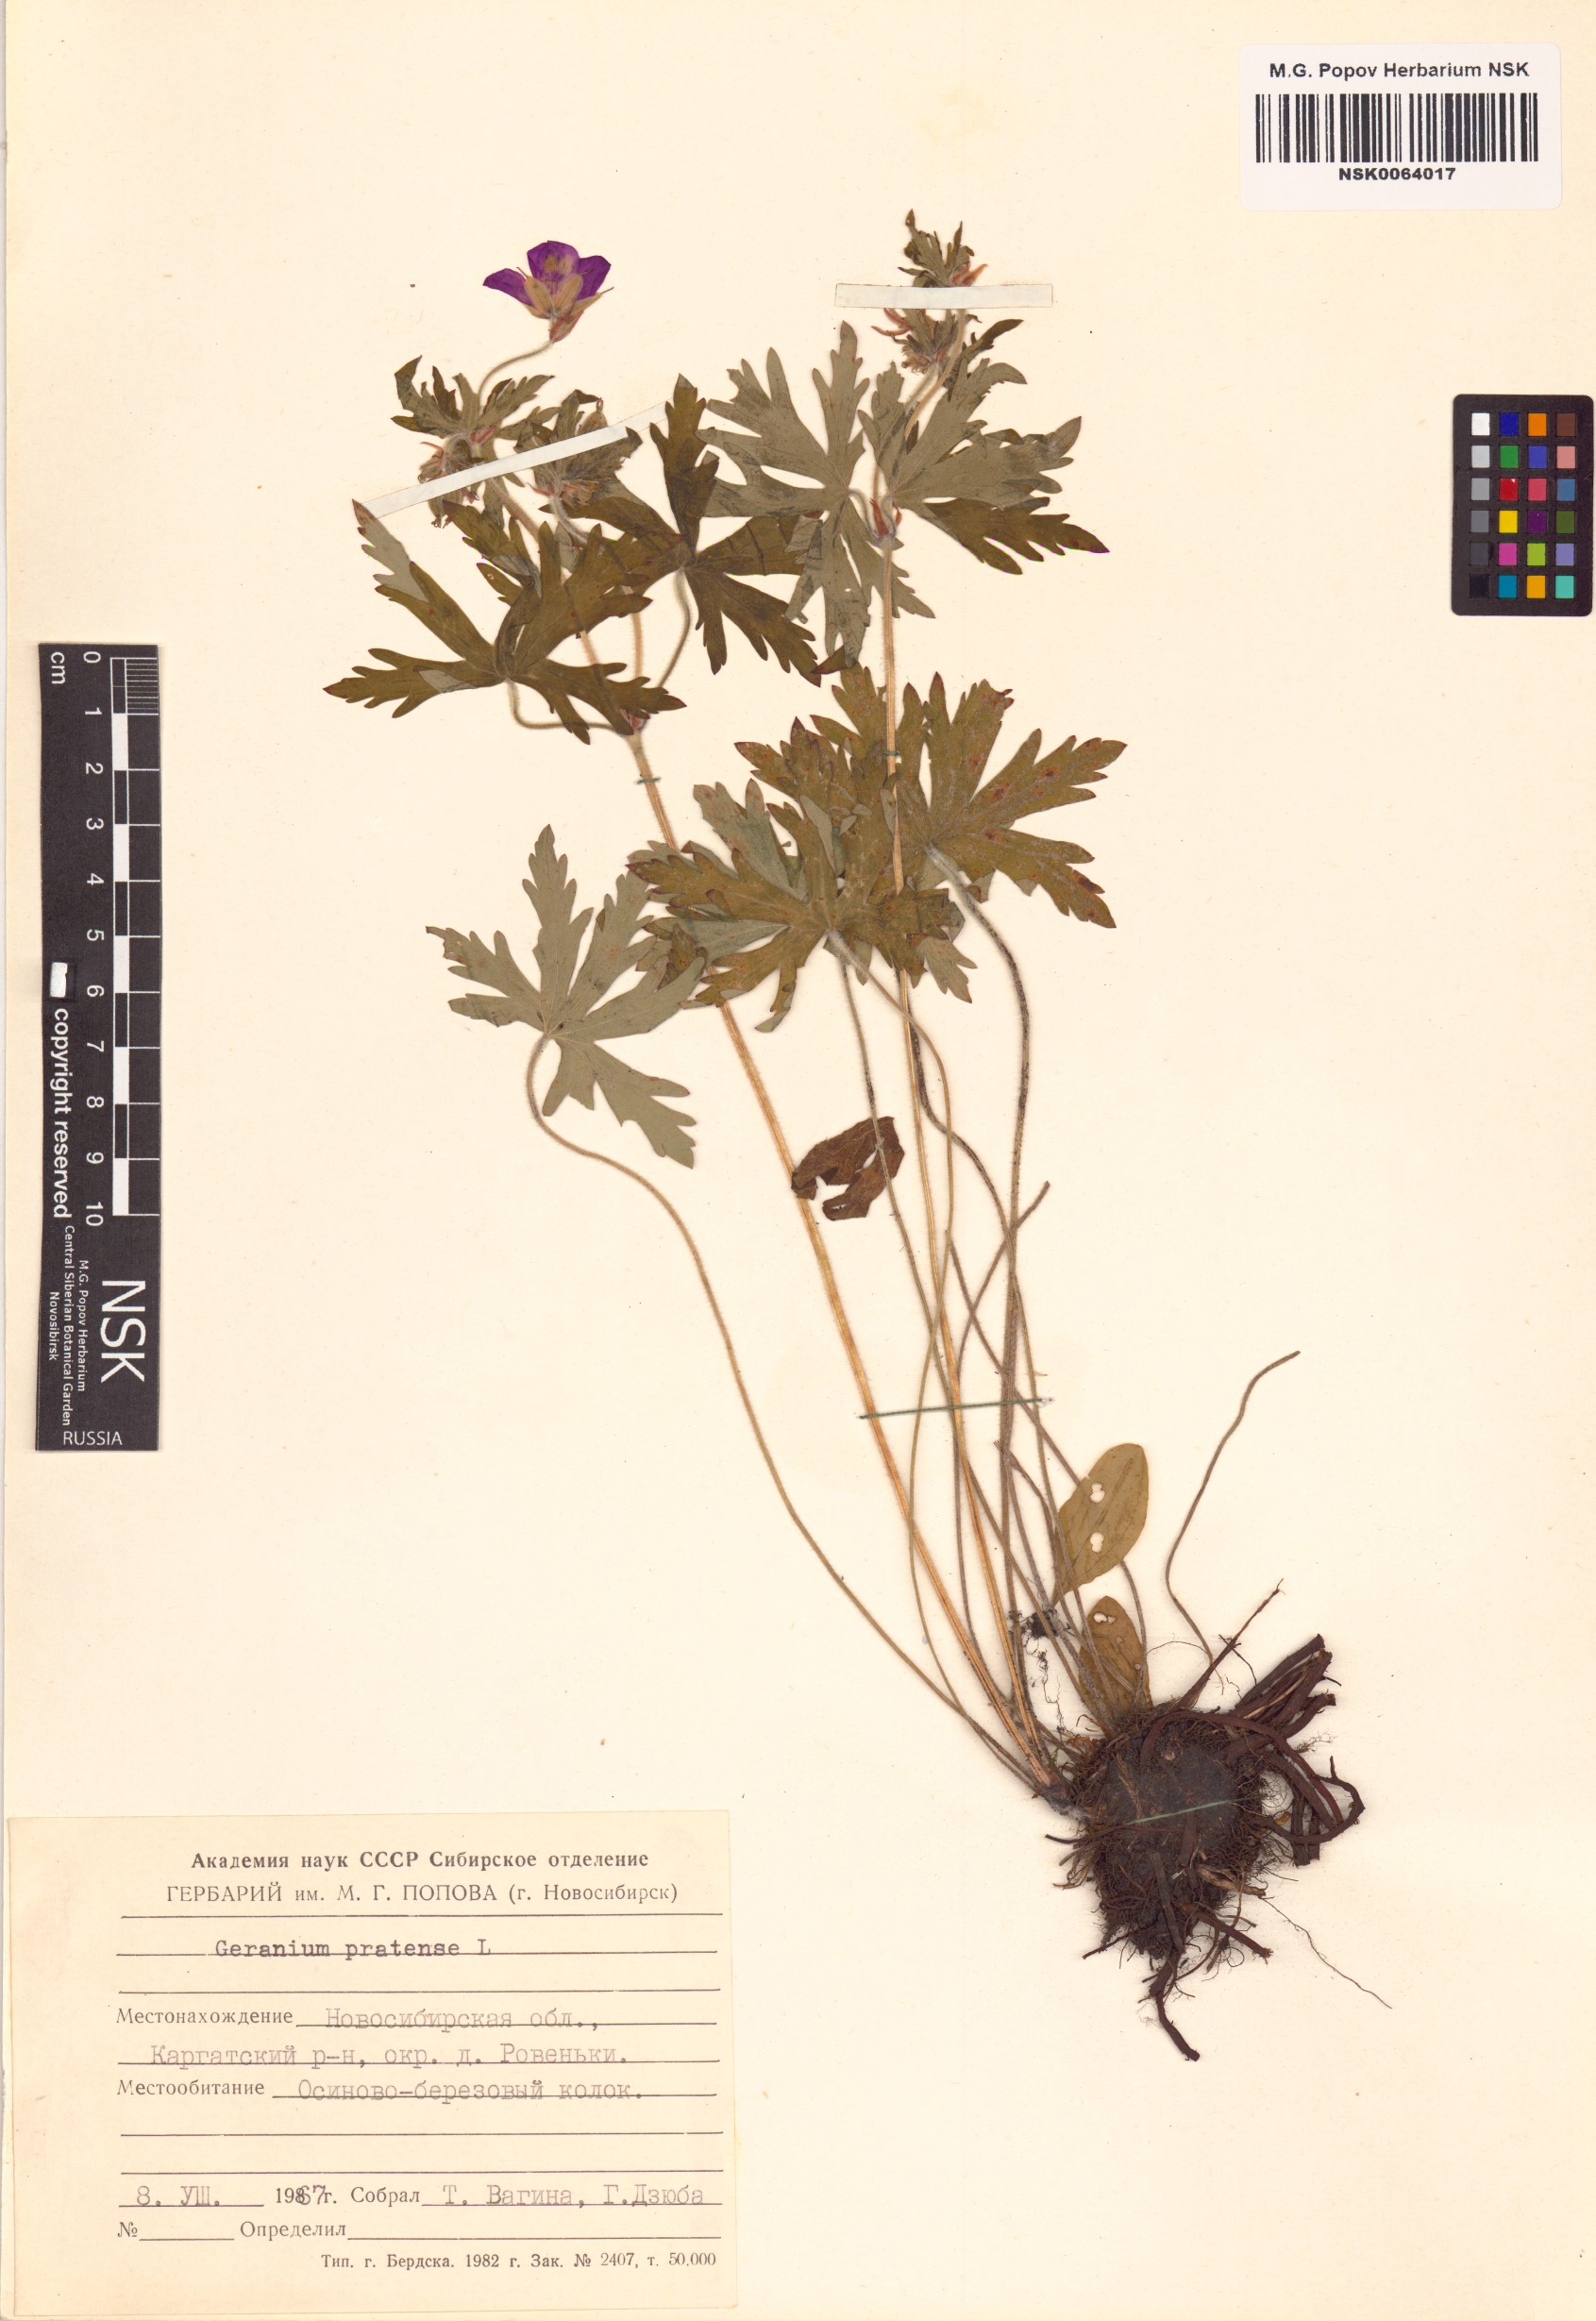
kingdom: Plantae
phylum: Tracheophyta
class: Magnoliopsida
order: Geraniales
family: Geraniaceae
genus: Geranium
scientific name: Geranium pratense
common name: Meadow crane's-bill
